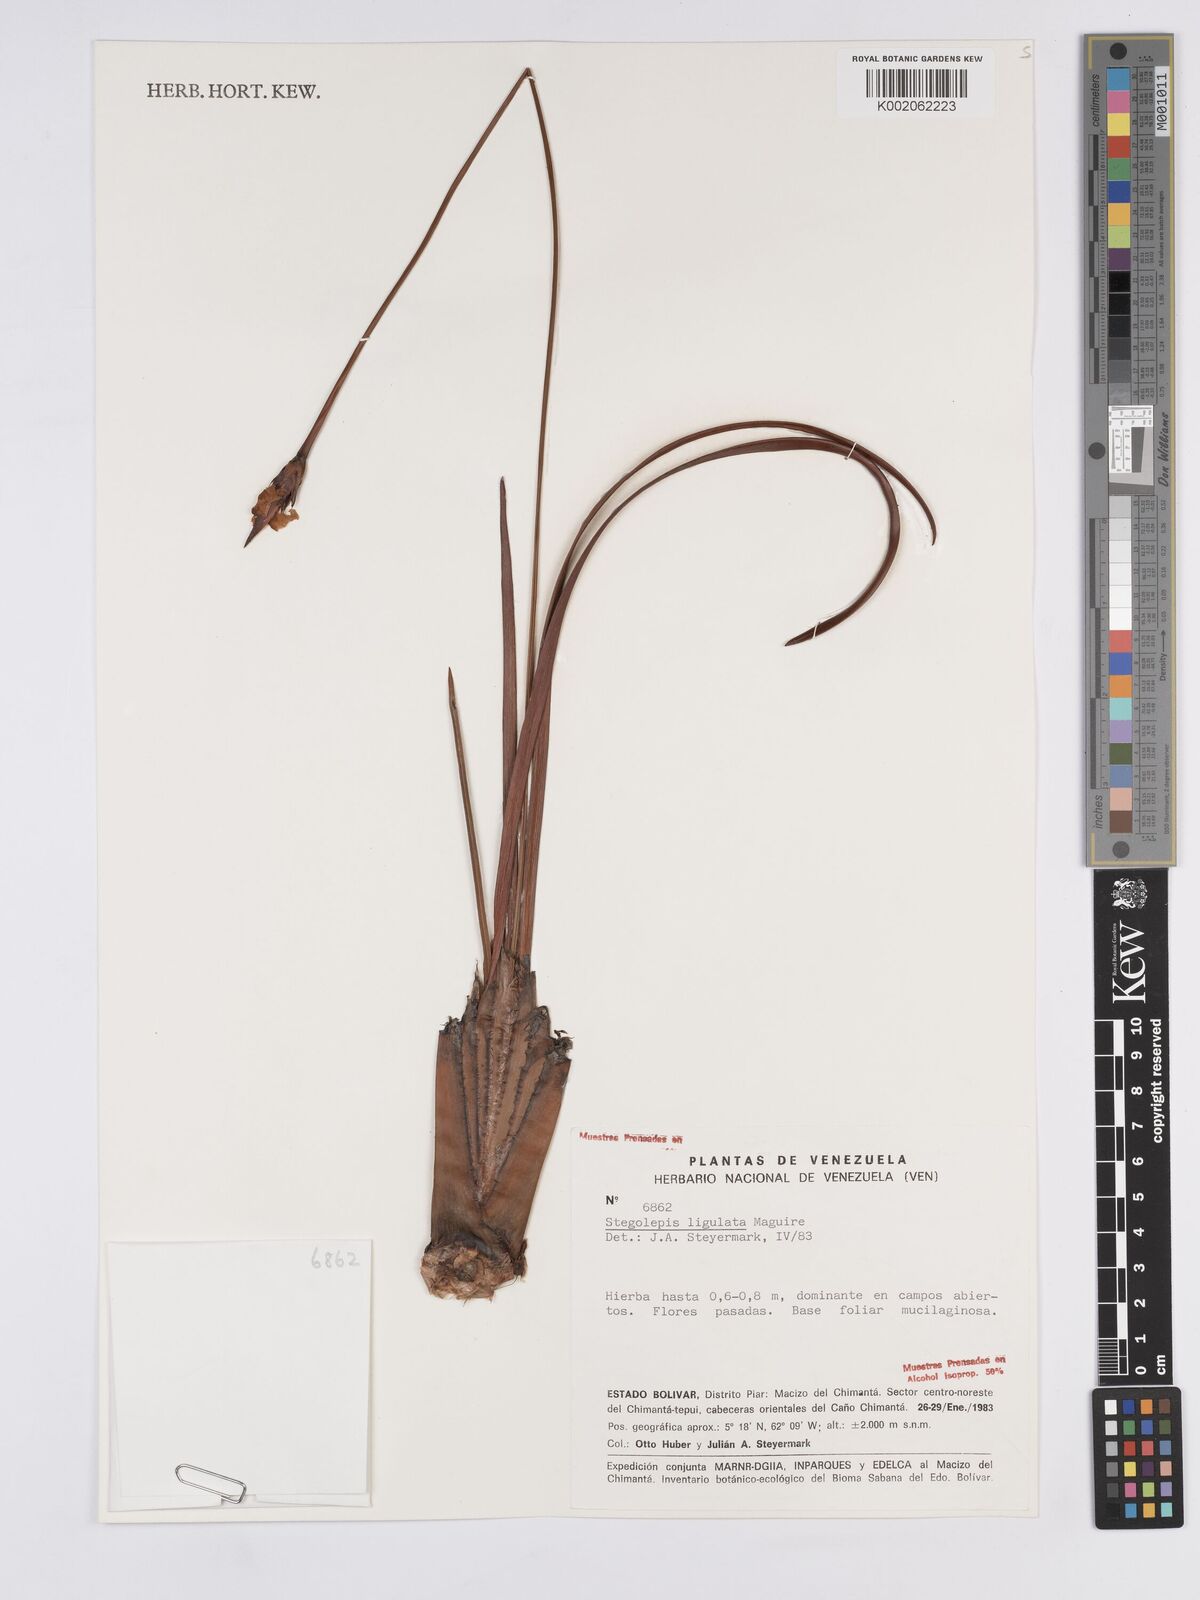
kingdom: Plantae
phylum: Tracheophyta
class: Liliopsida
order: Poales
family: Rapateaceae
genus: Stegolepis
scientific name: Stegolepis ligulata
